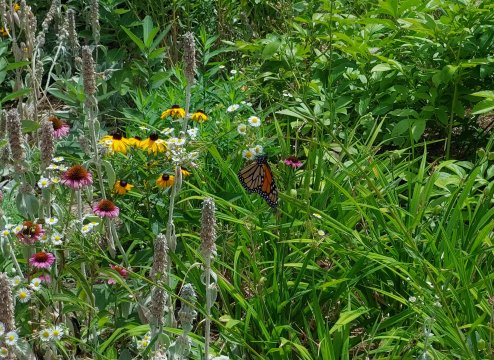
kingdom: Animalia
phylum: Arthropoda
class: Insecta
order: Lepidoptera
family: Nymphalidae
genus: Danaus
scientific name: Danaus plexippus
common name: Monarch
